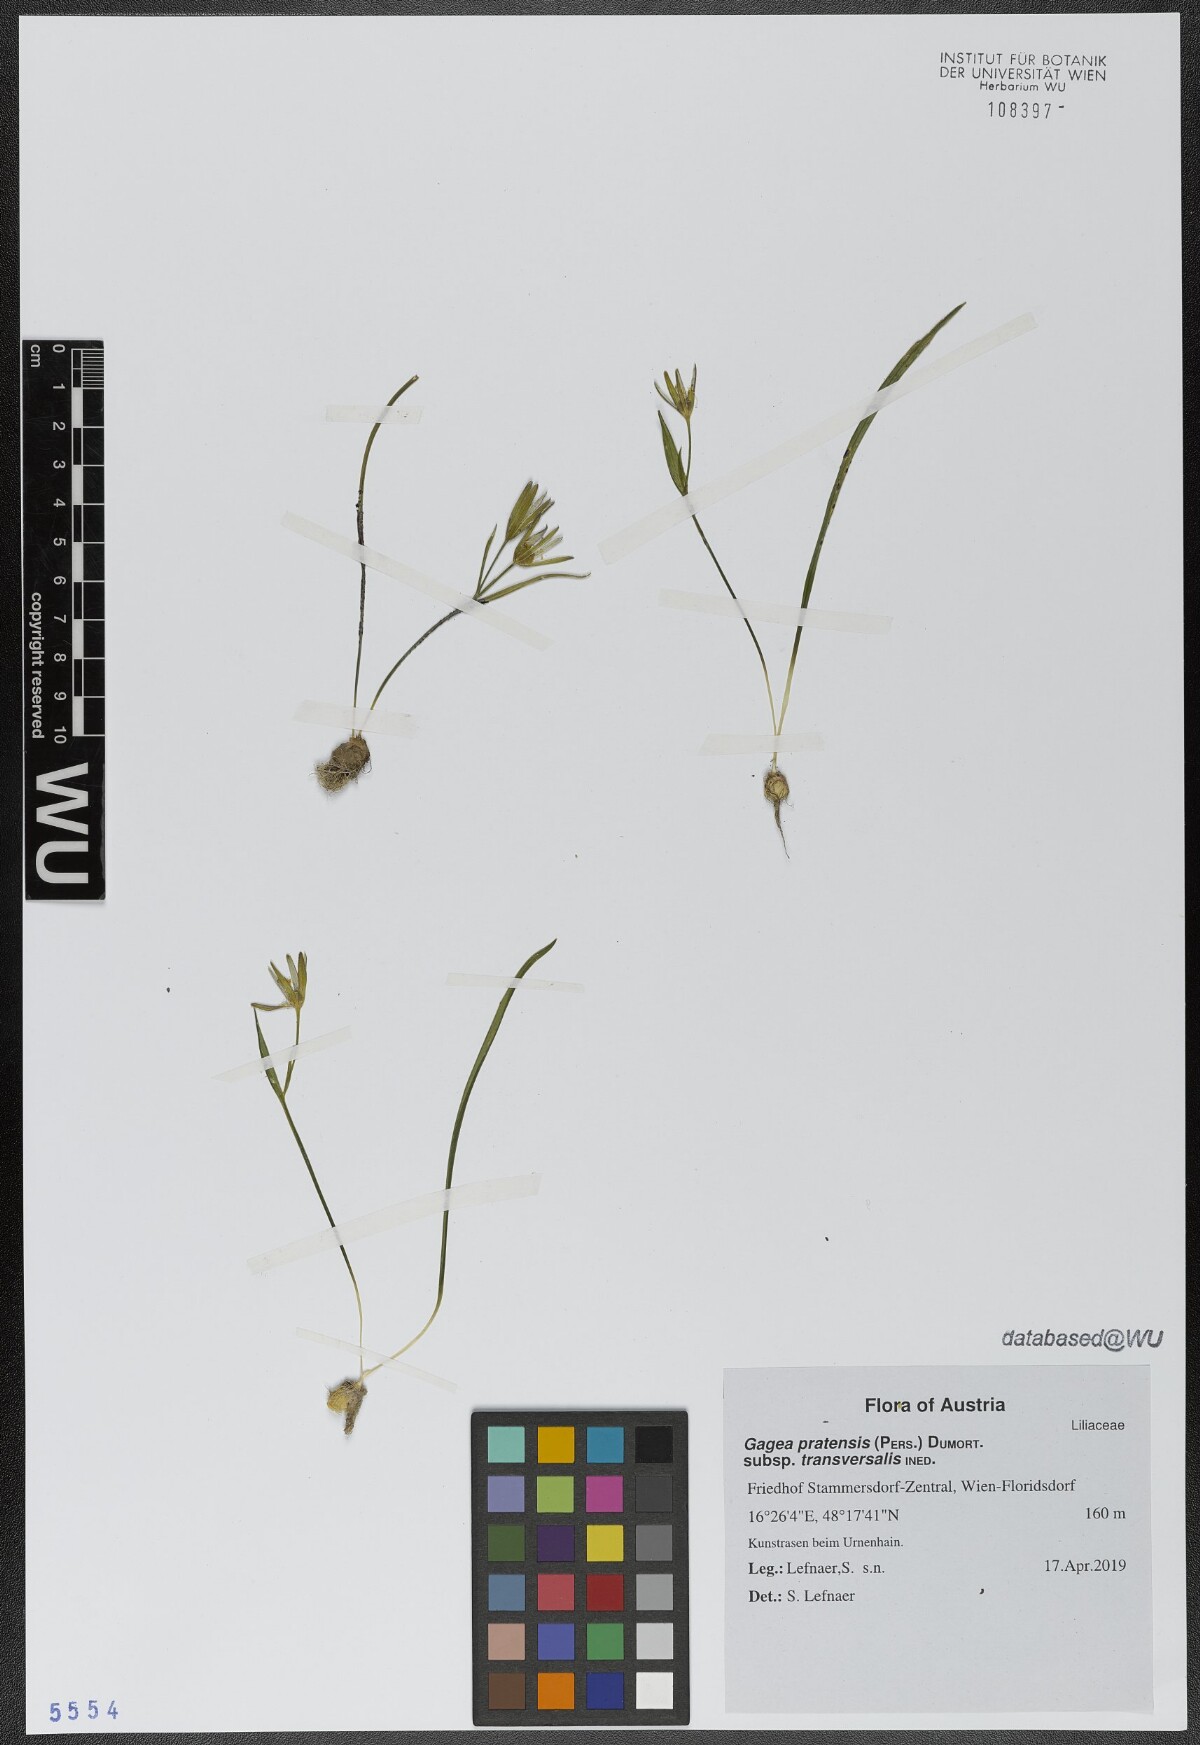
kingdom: Plantae
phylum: Tracheophyta
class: Liliopsida
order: Liliales
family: Liliaceae
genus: Gagea
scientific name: Gagea pratensis
